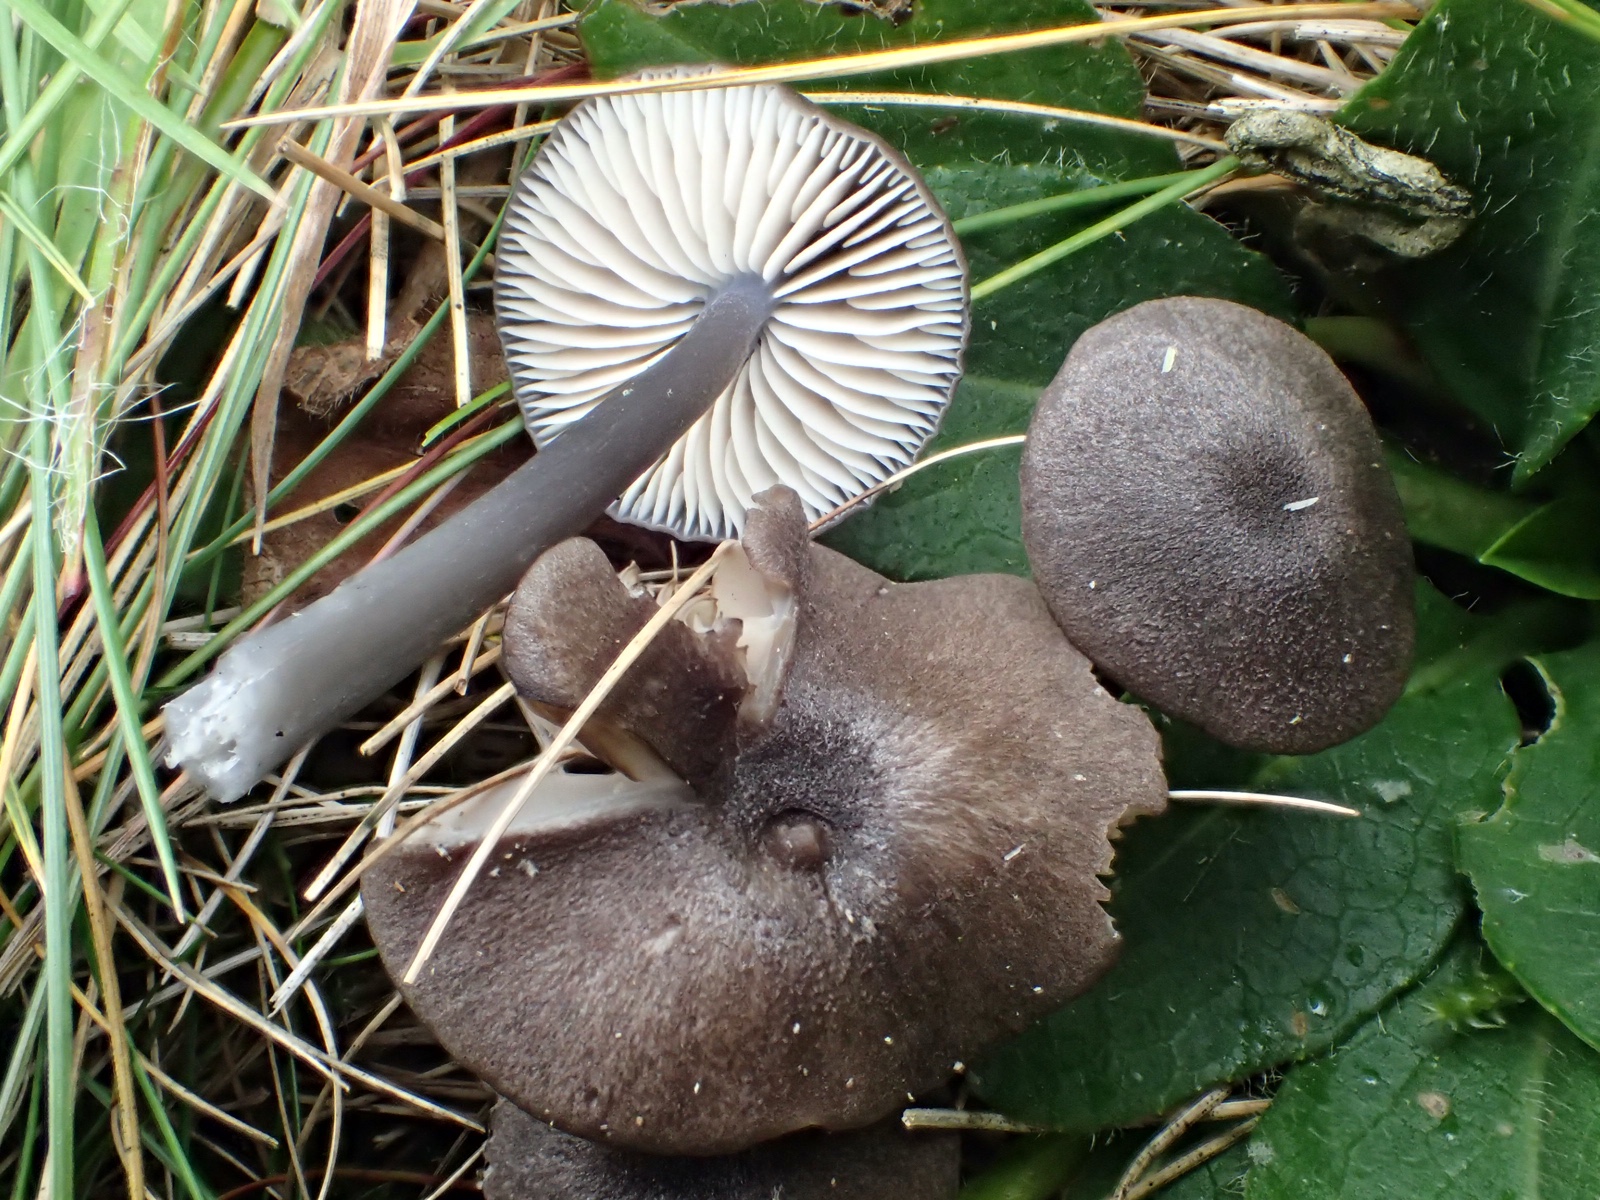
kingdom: Fungi
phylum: Basidiomycota
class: Agaricomycetes
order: Agaricales
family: Entolomataceae
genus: Entoloma
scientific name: Entoloma
